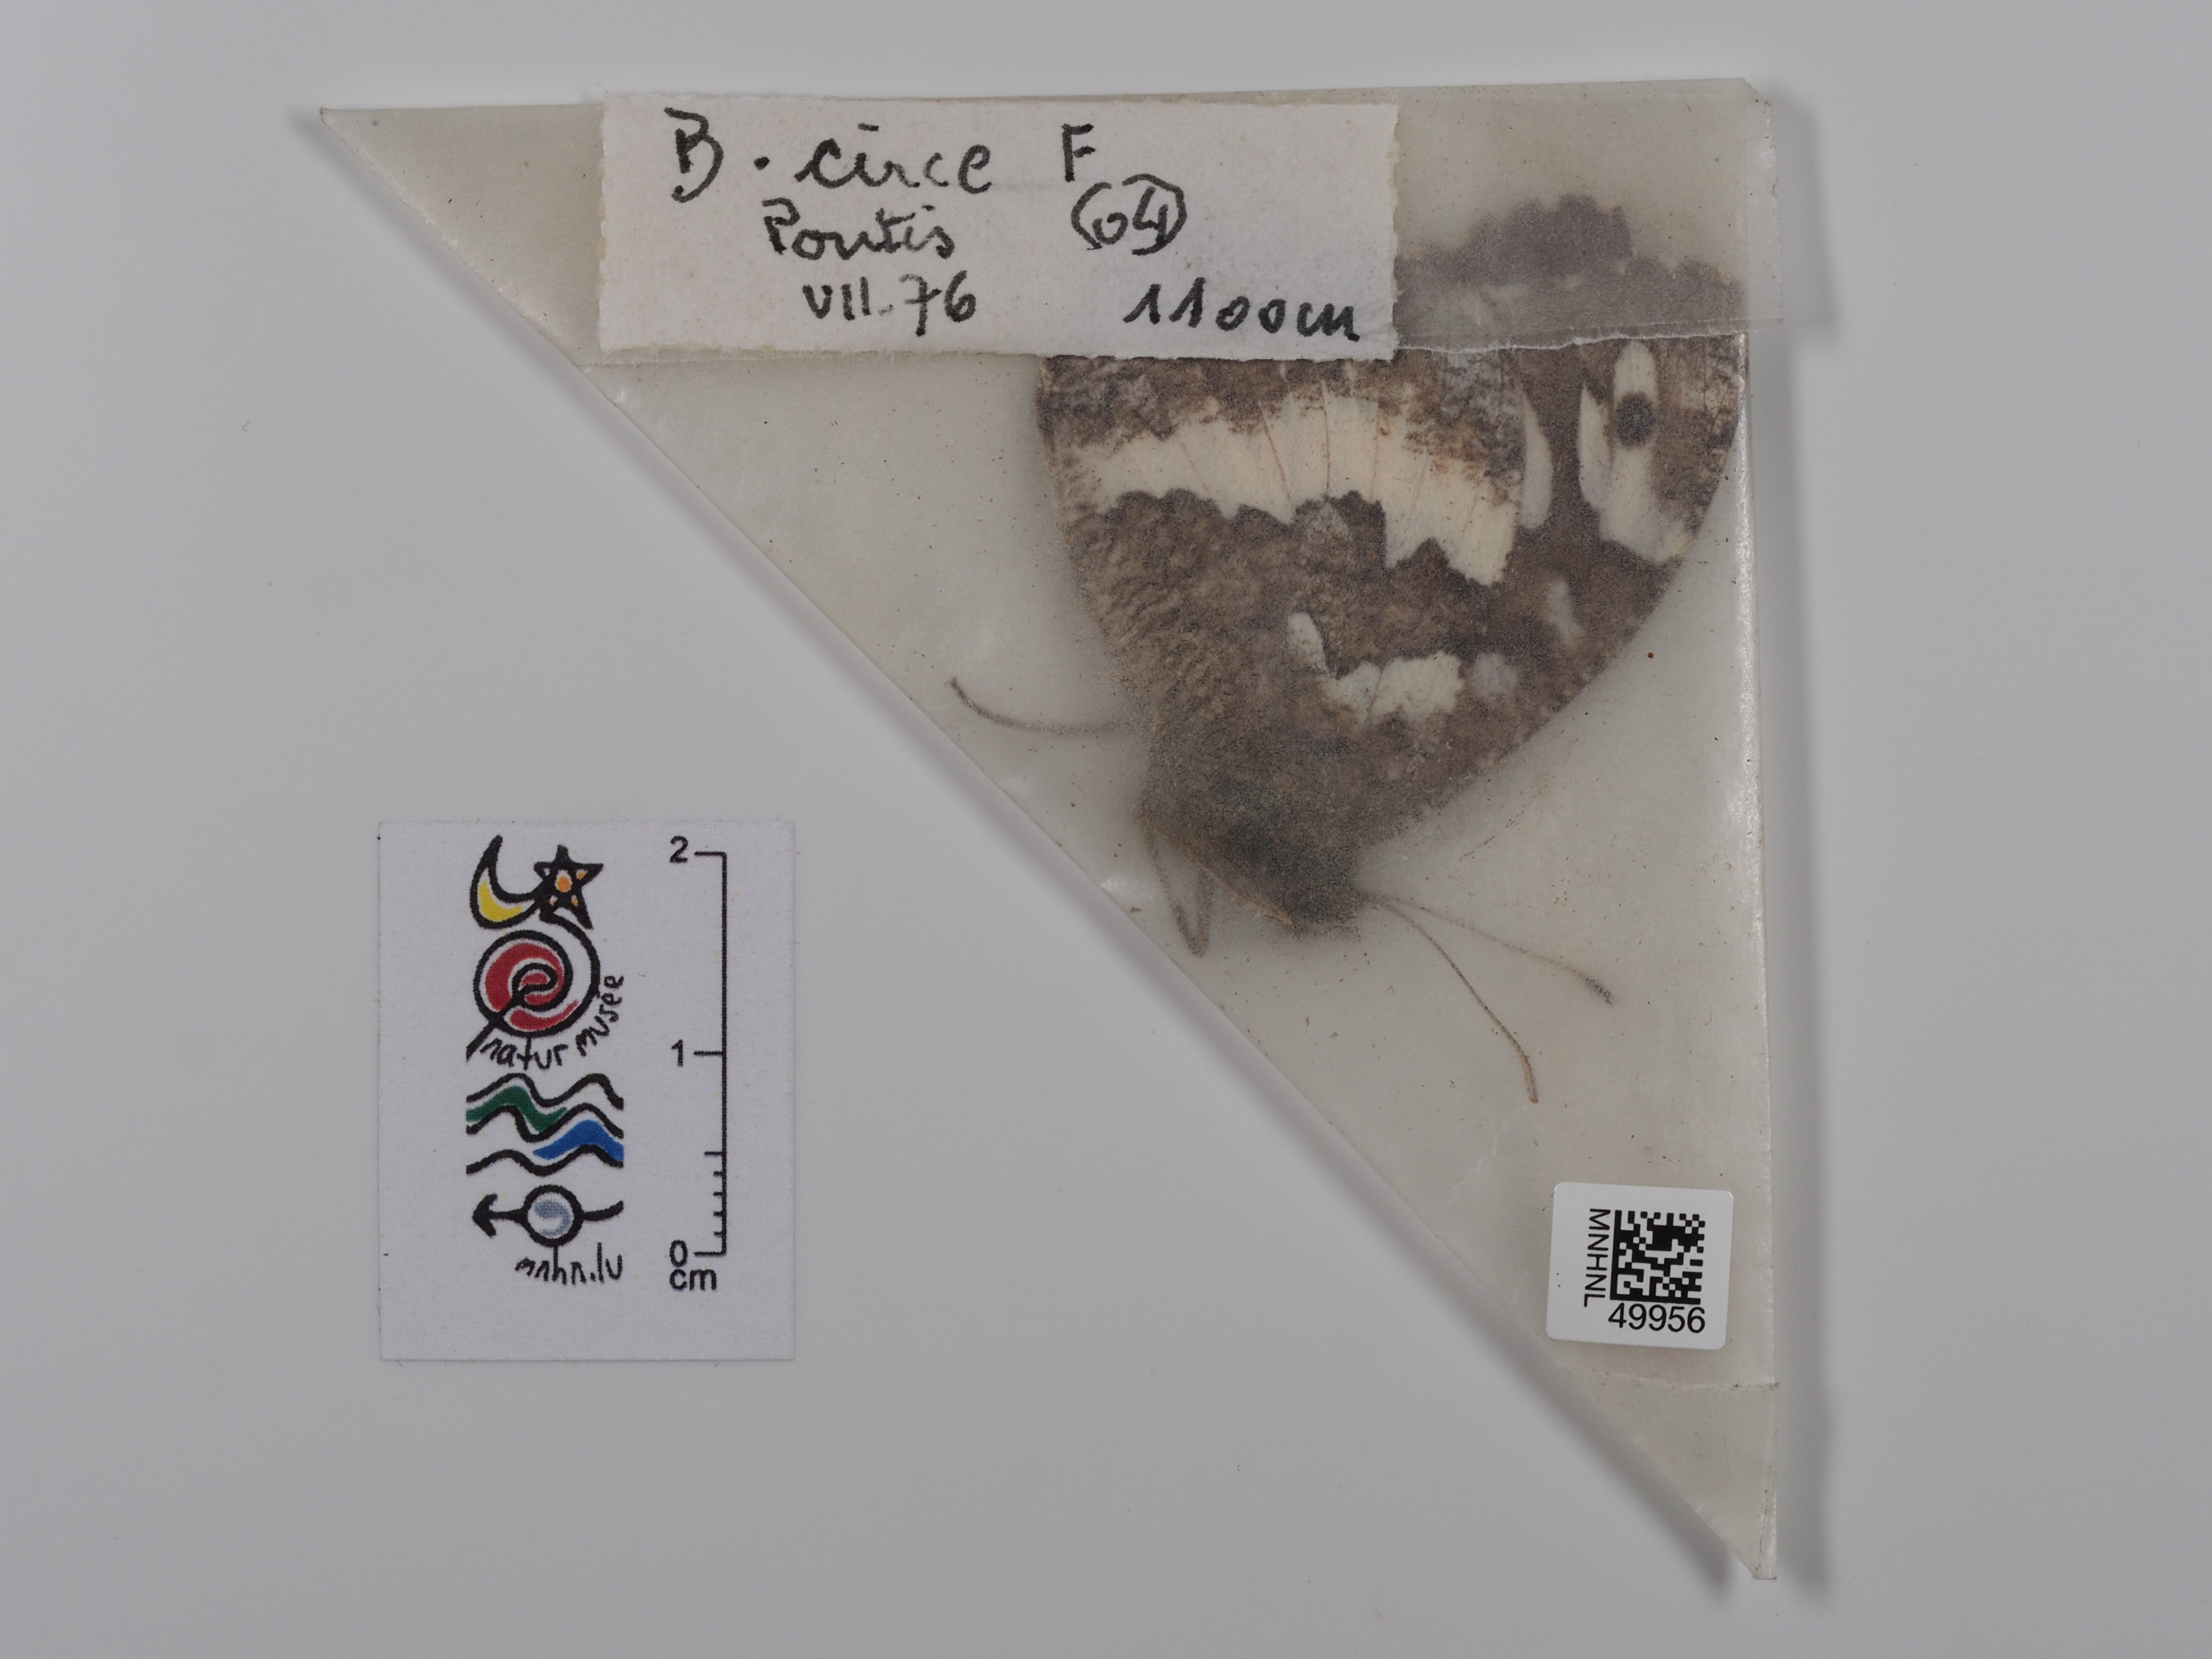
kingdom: Animalia
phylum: Arthropoda
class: Insecta
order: Lepidoptera
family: Lycaenidae
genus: Loweia
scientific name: Loweia tityrus
